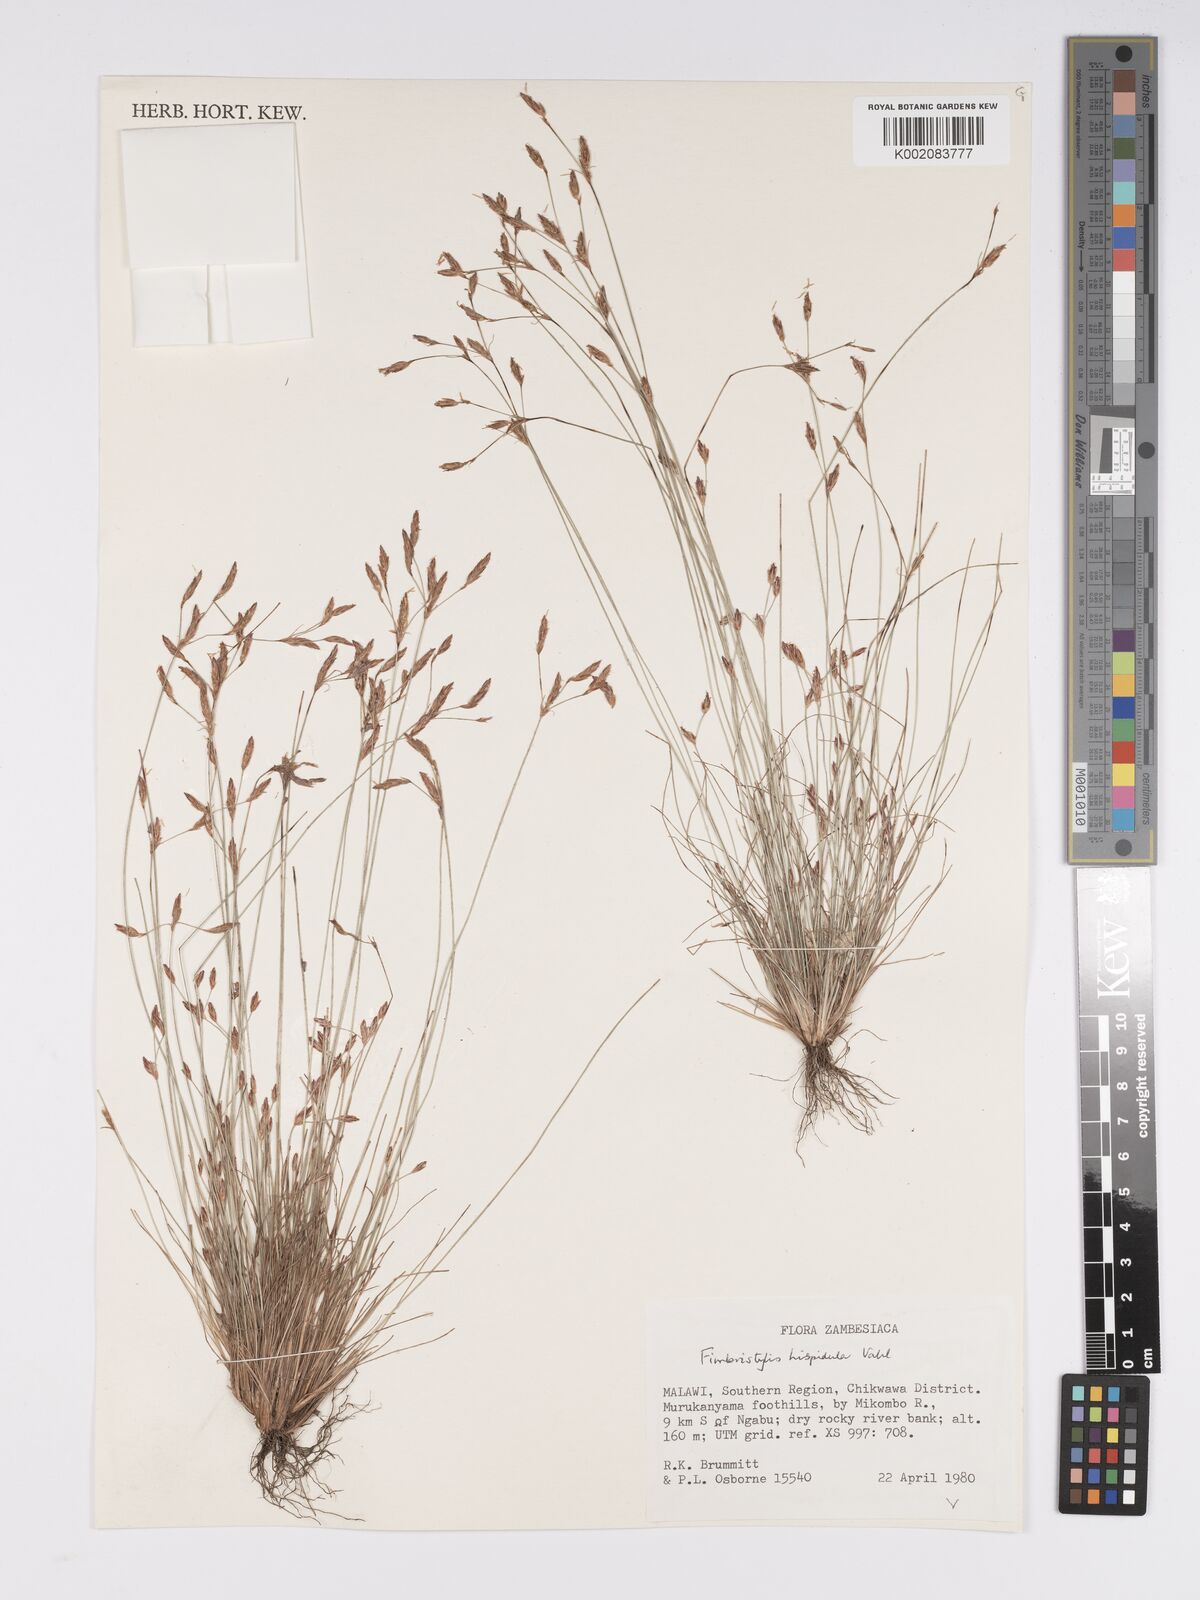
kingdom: Plantae
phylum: Tracheophyta
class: Liliopsida
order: Poales
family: Cyperaceae
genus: Bulbostylis
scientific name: Bulbostylis hispidula
